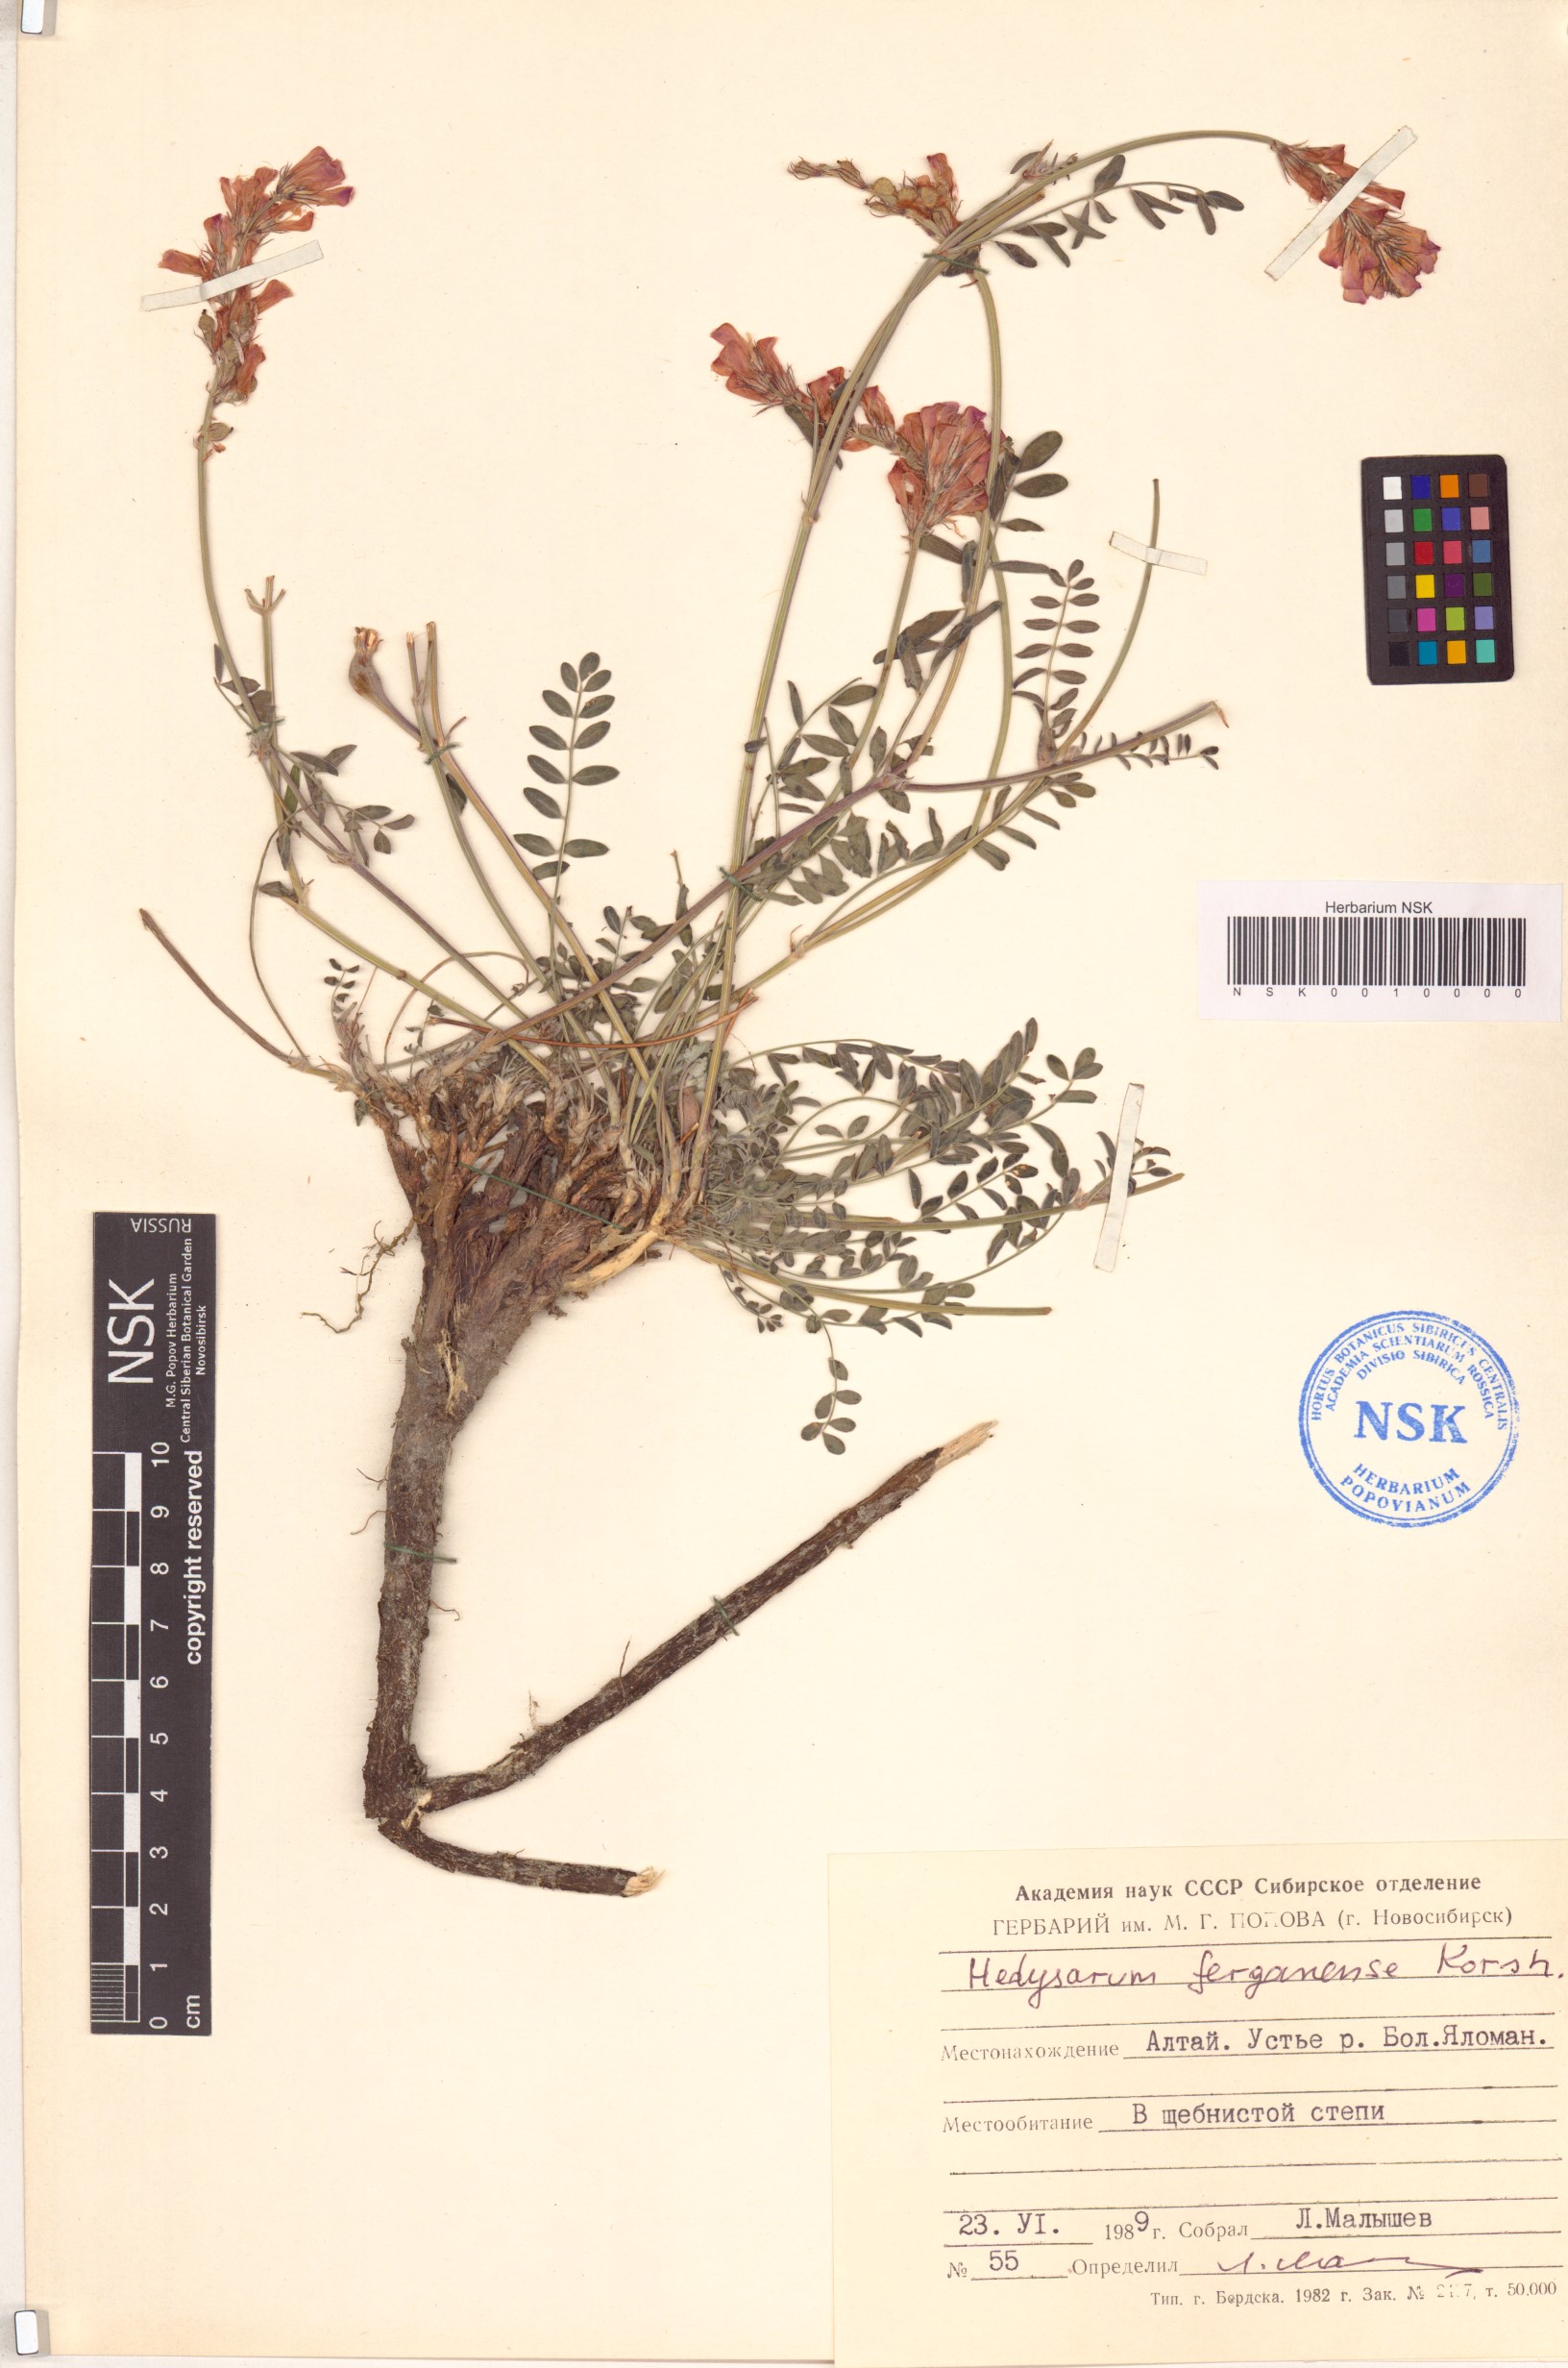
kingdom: Plantae
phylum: Tracheophyta
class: Magnoliopsida
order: Fabales
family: Fabaceae
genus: Hedysarum
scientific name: Hedysarum ferganense
